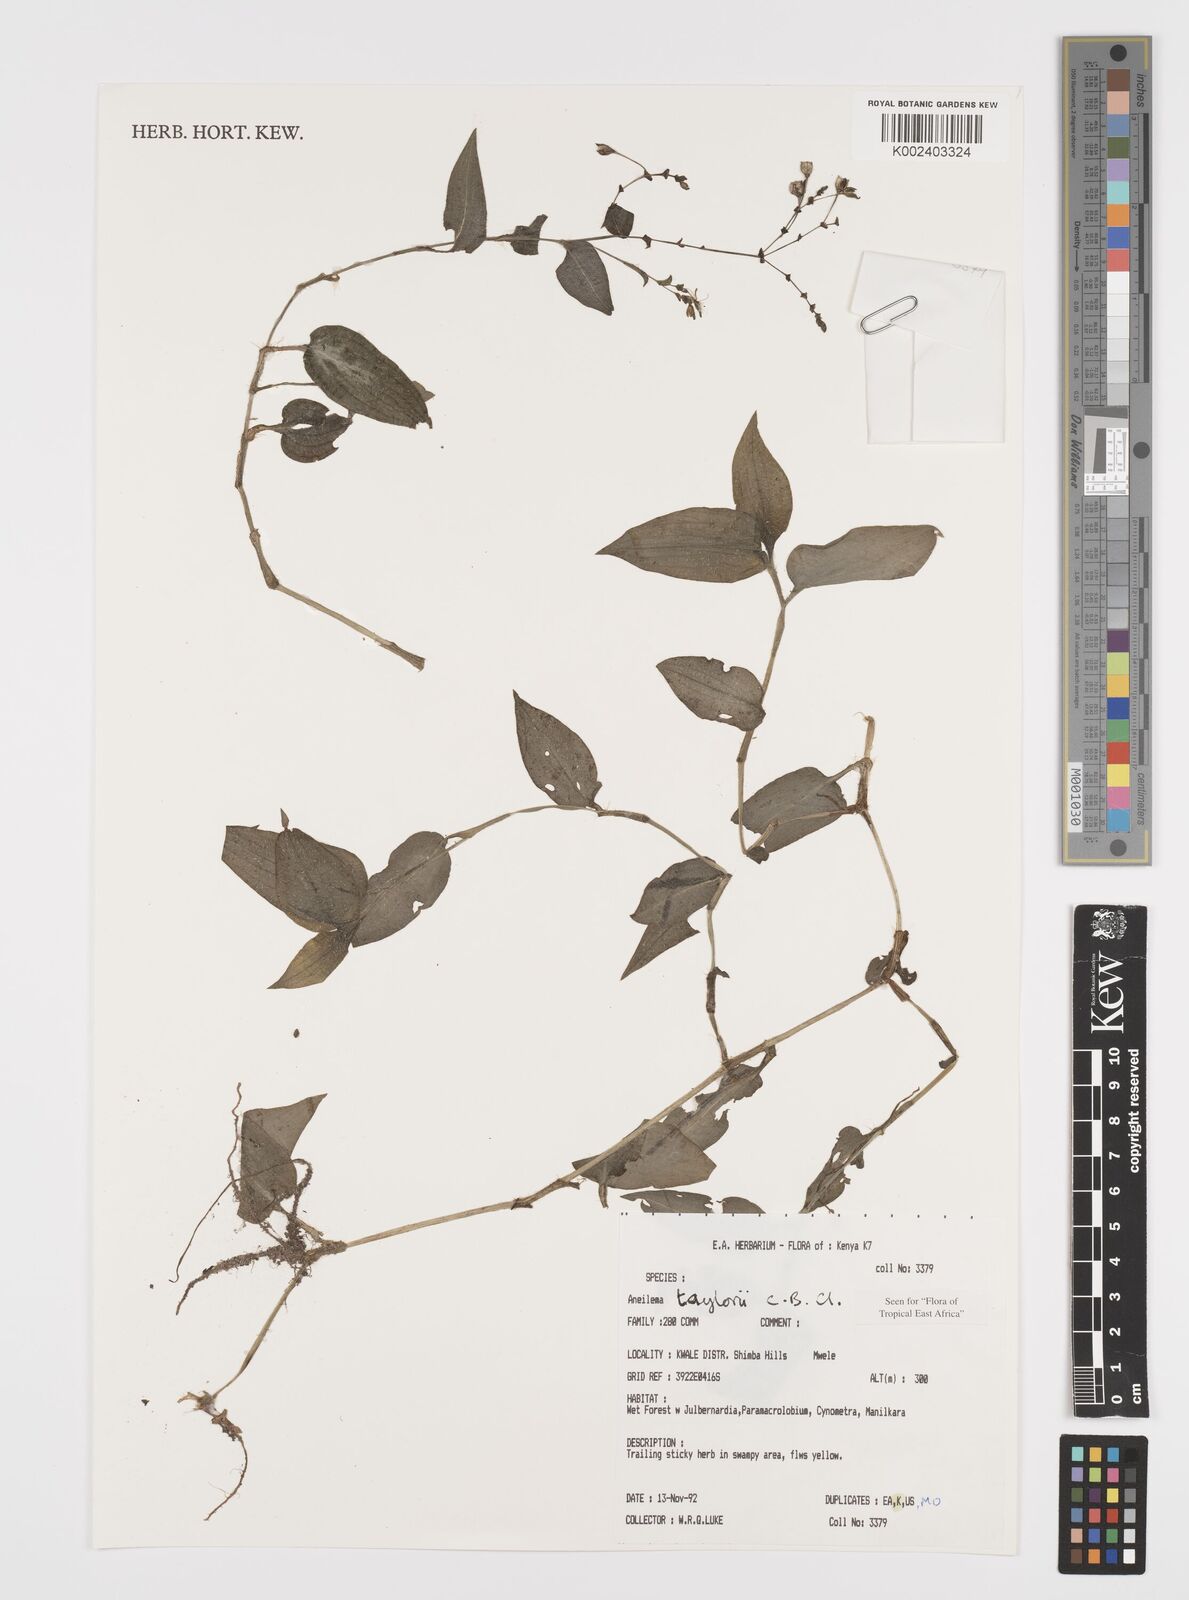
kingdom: Plantae
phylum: Tracheophyta
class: Liliopsida
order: Commelinales
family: Commelinaceae
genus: Aneilema
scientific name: Aneilema taylorii
